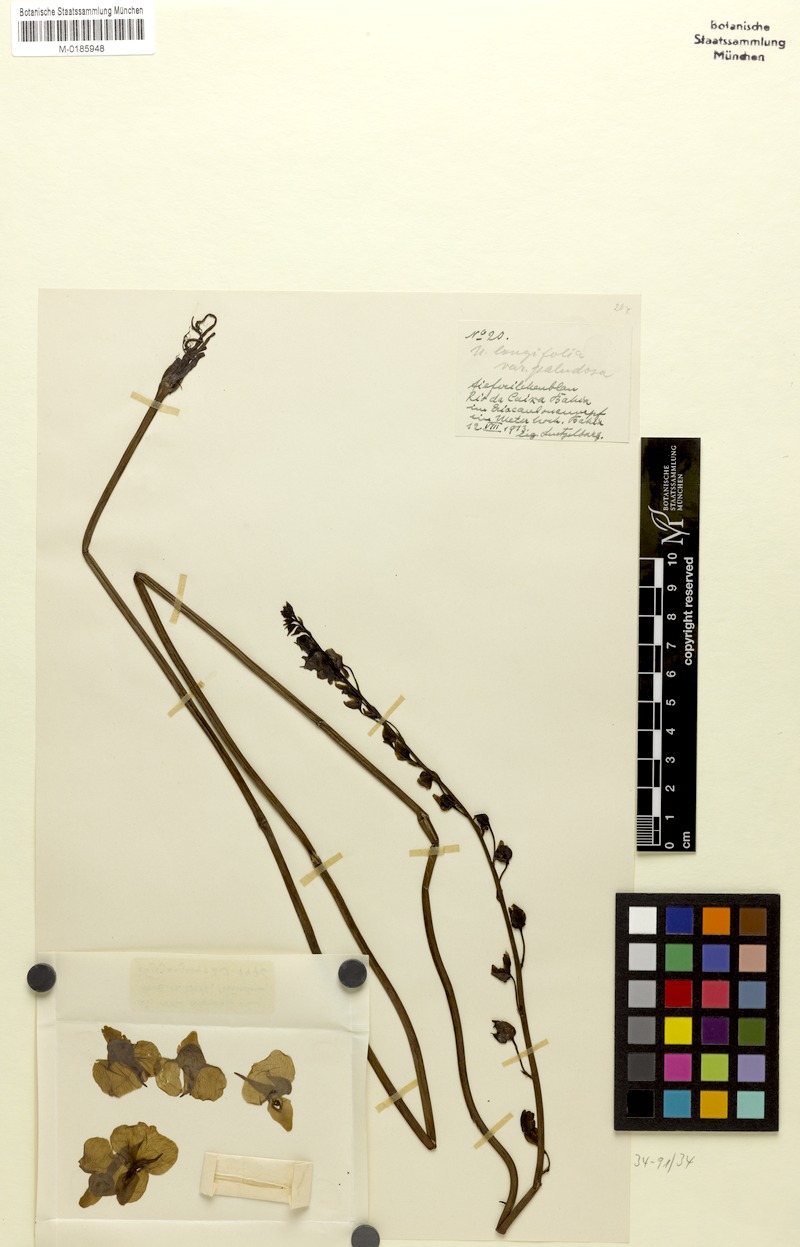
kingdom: Plantae
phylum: Tracheophyta
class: Magnoliopsida
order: Lamiales
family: Lentibulariaceae
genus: Utricularia
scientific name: Utricularia longifolia
